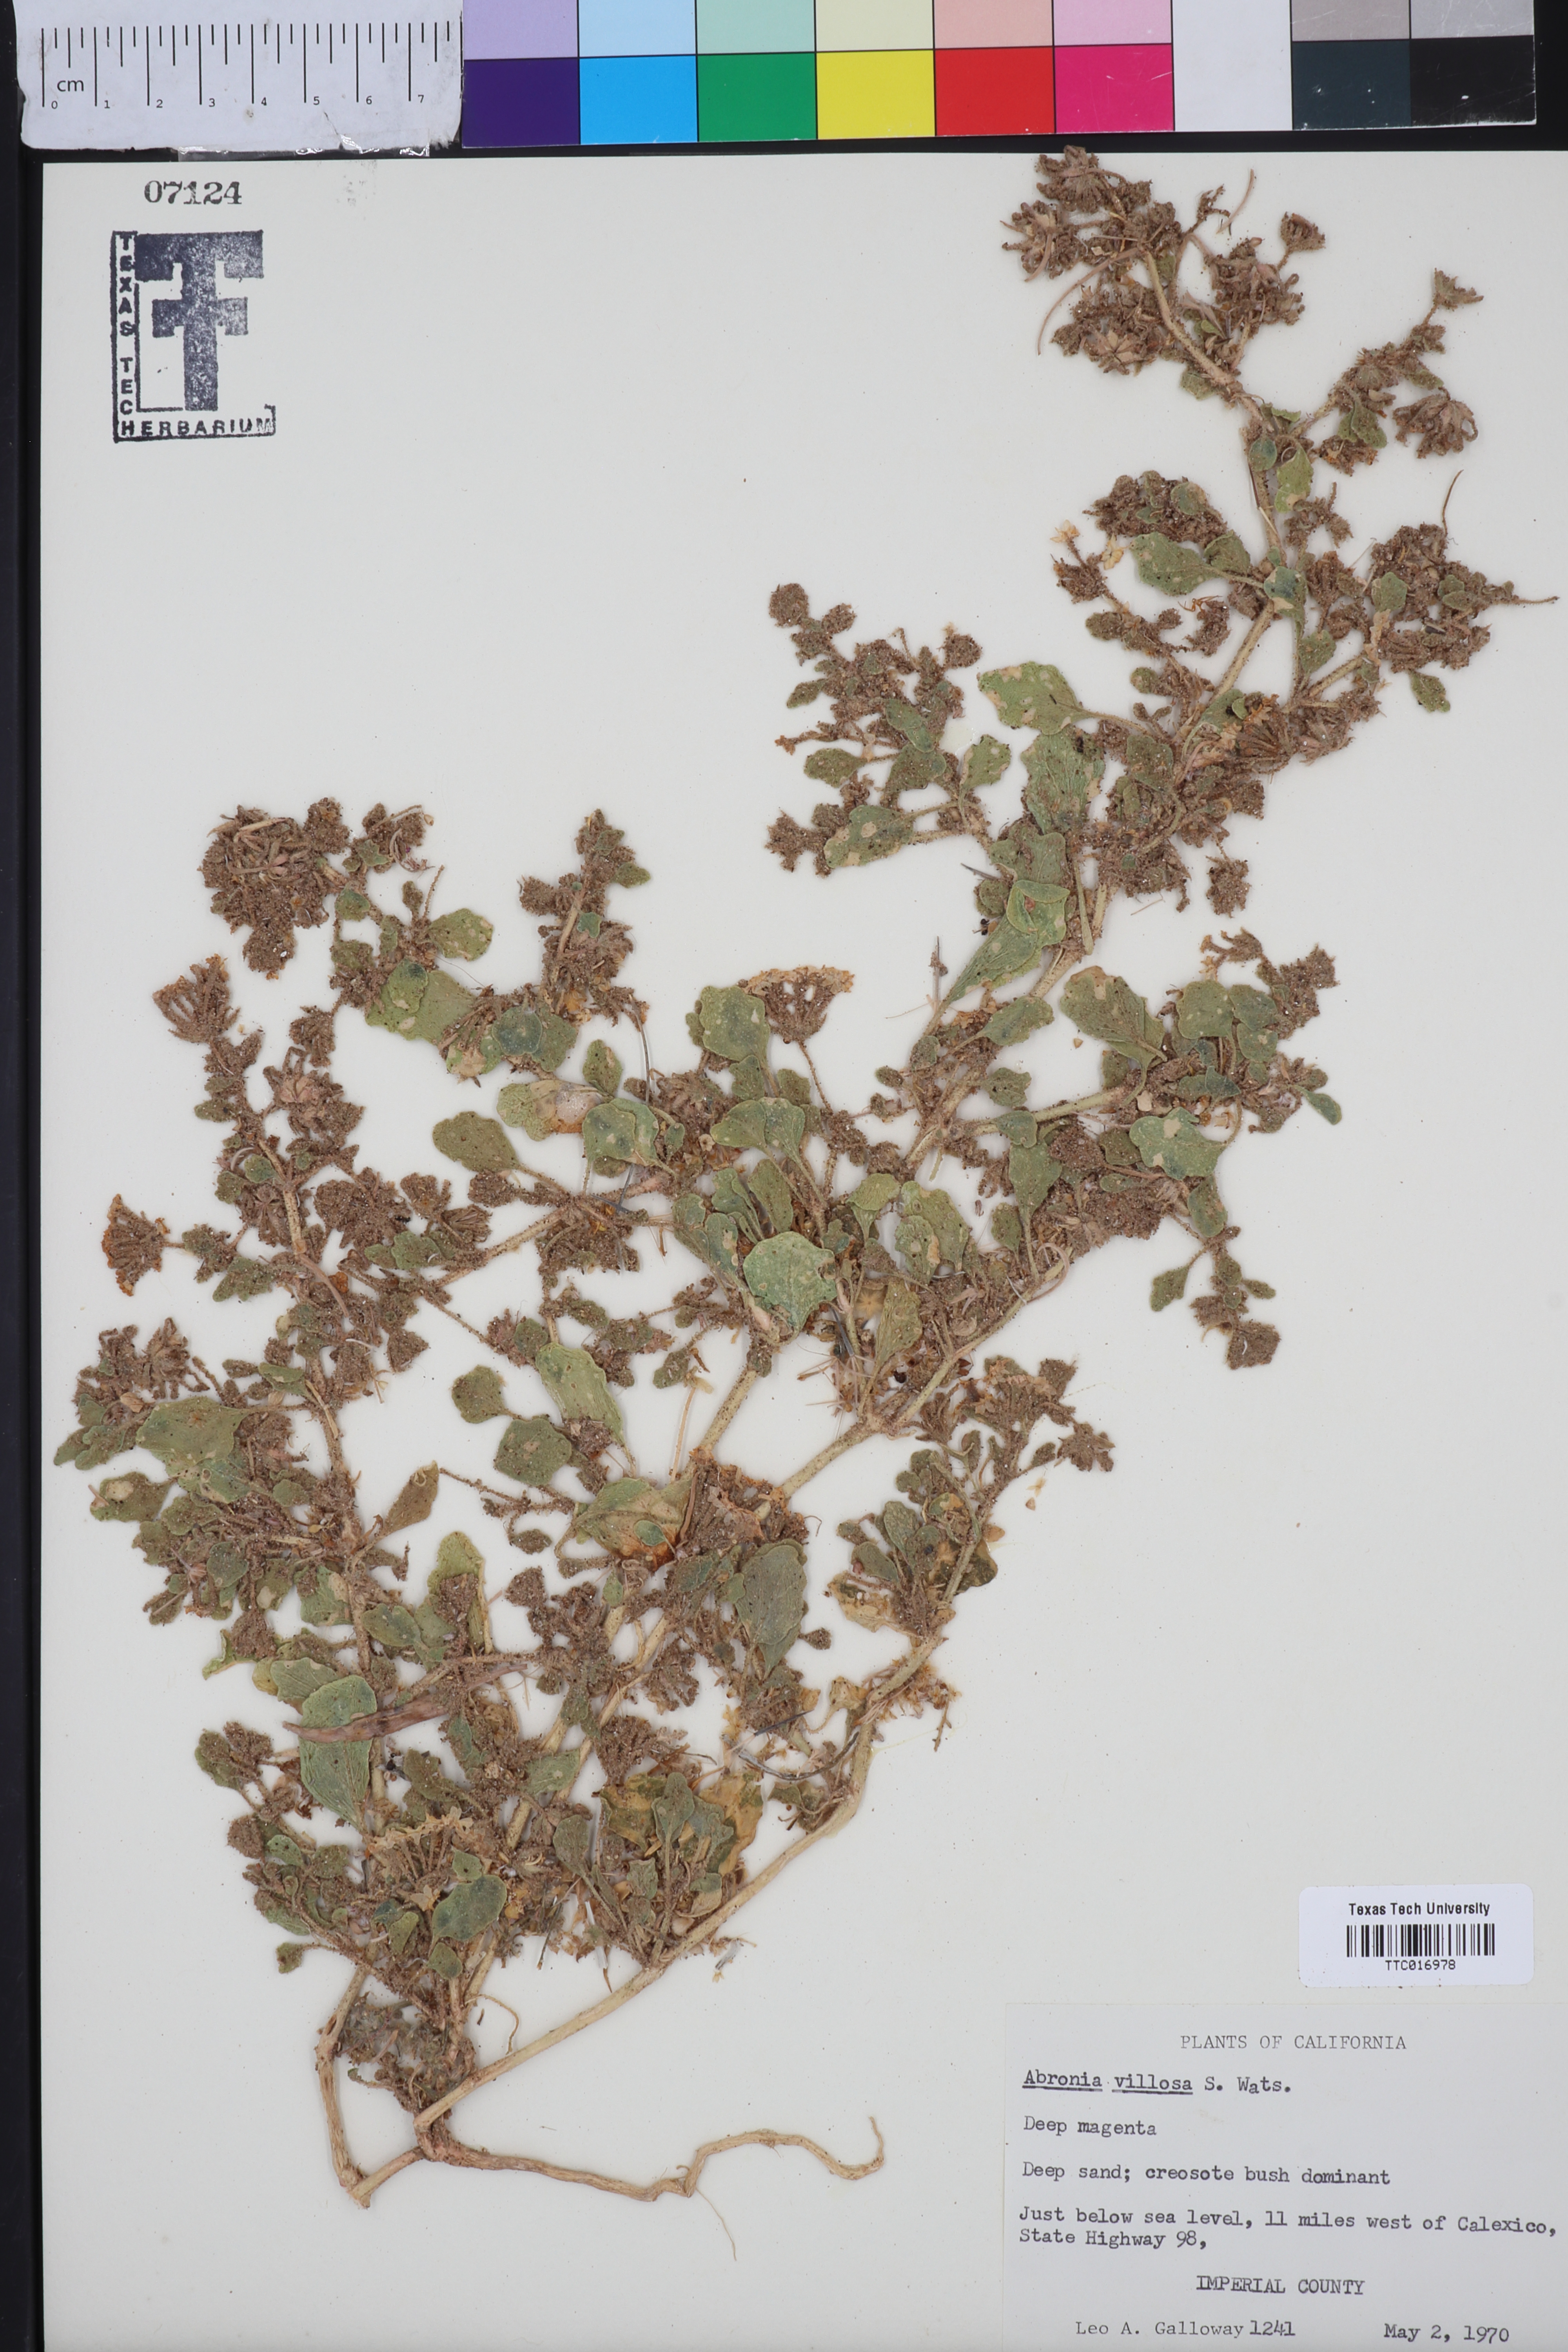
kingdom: Plantae
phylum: Tracheophyta
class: Magnoliopsida
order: Caryophyllales
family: Nyctaginaceae
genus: Abronia
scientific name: Abronia villosa
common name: Desert sand-verbena
